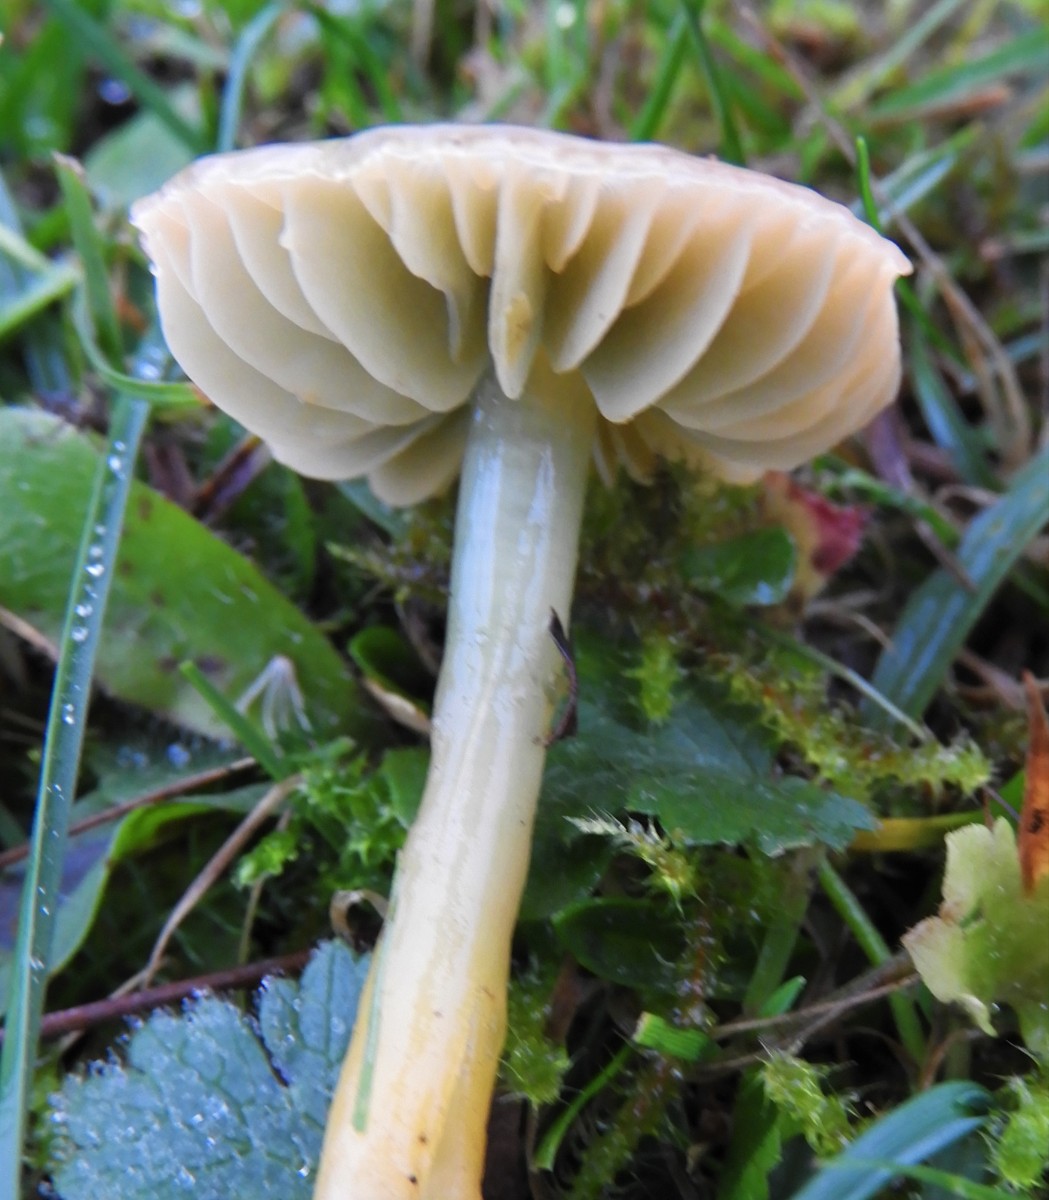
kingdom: Fungi
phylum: Basidiomycota
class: Agaricomycetes
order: Agaricales
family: Hygrophoraceae
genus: Gliophorus
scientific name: Gliophorus psittacinus
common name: papegøje-vokshat
